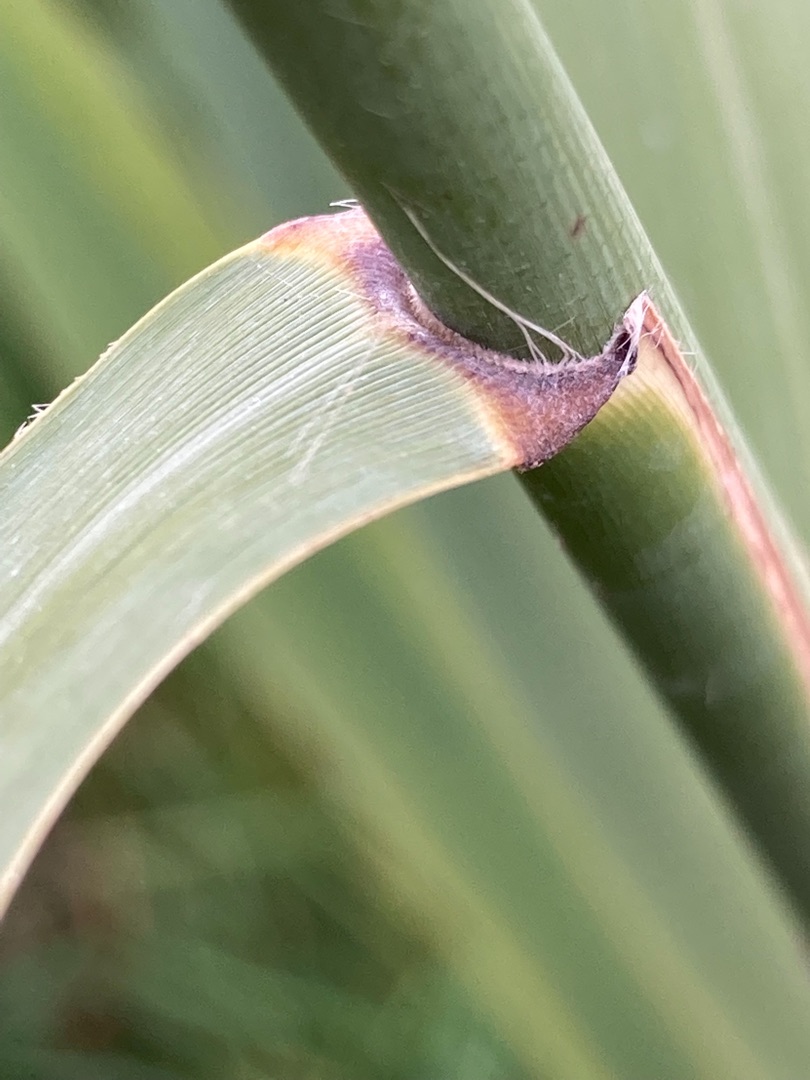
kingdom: Plantae
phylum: Tracheophyta
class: Liliopsida
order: Poales
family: Poaceae
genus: Phragmites
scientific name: Phragmites australis
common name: Tagrør
